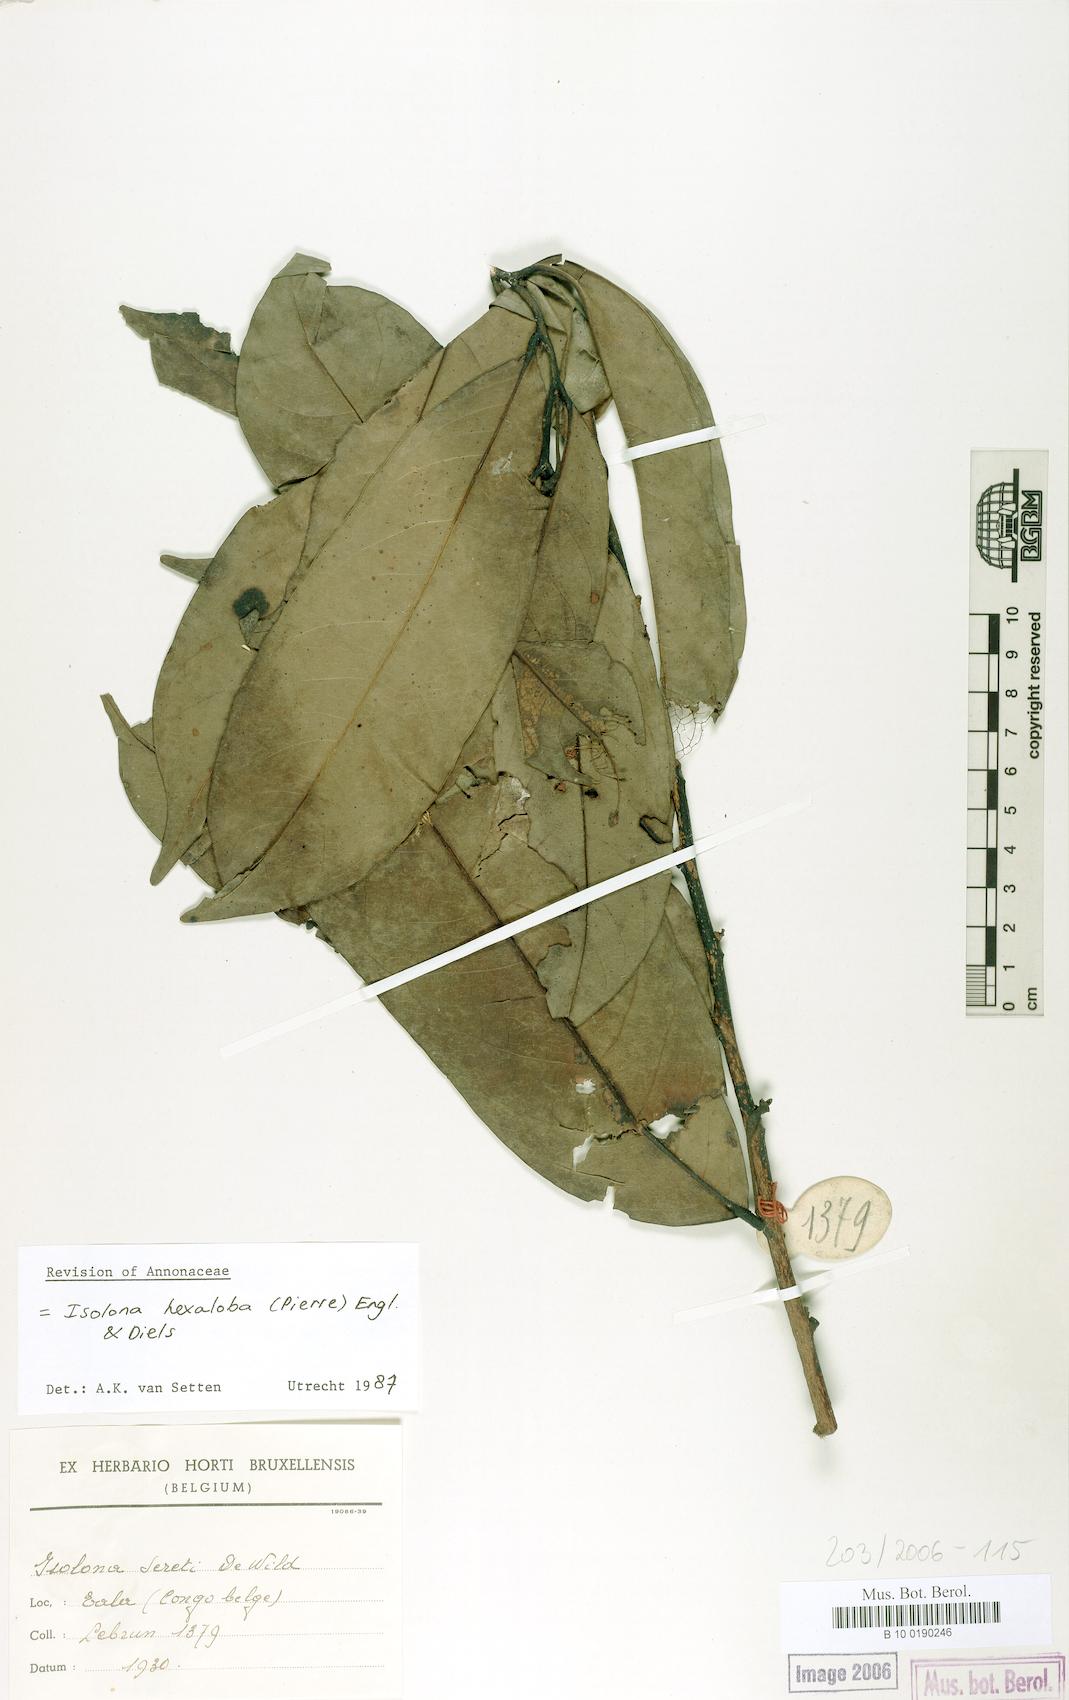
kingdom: Plantae
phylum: Tracheophyta
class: Magnoliopsida
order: Magnoliales
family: Annonaceae
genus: Isolona
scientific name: Isolona hexaloba
